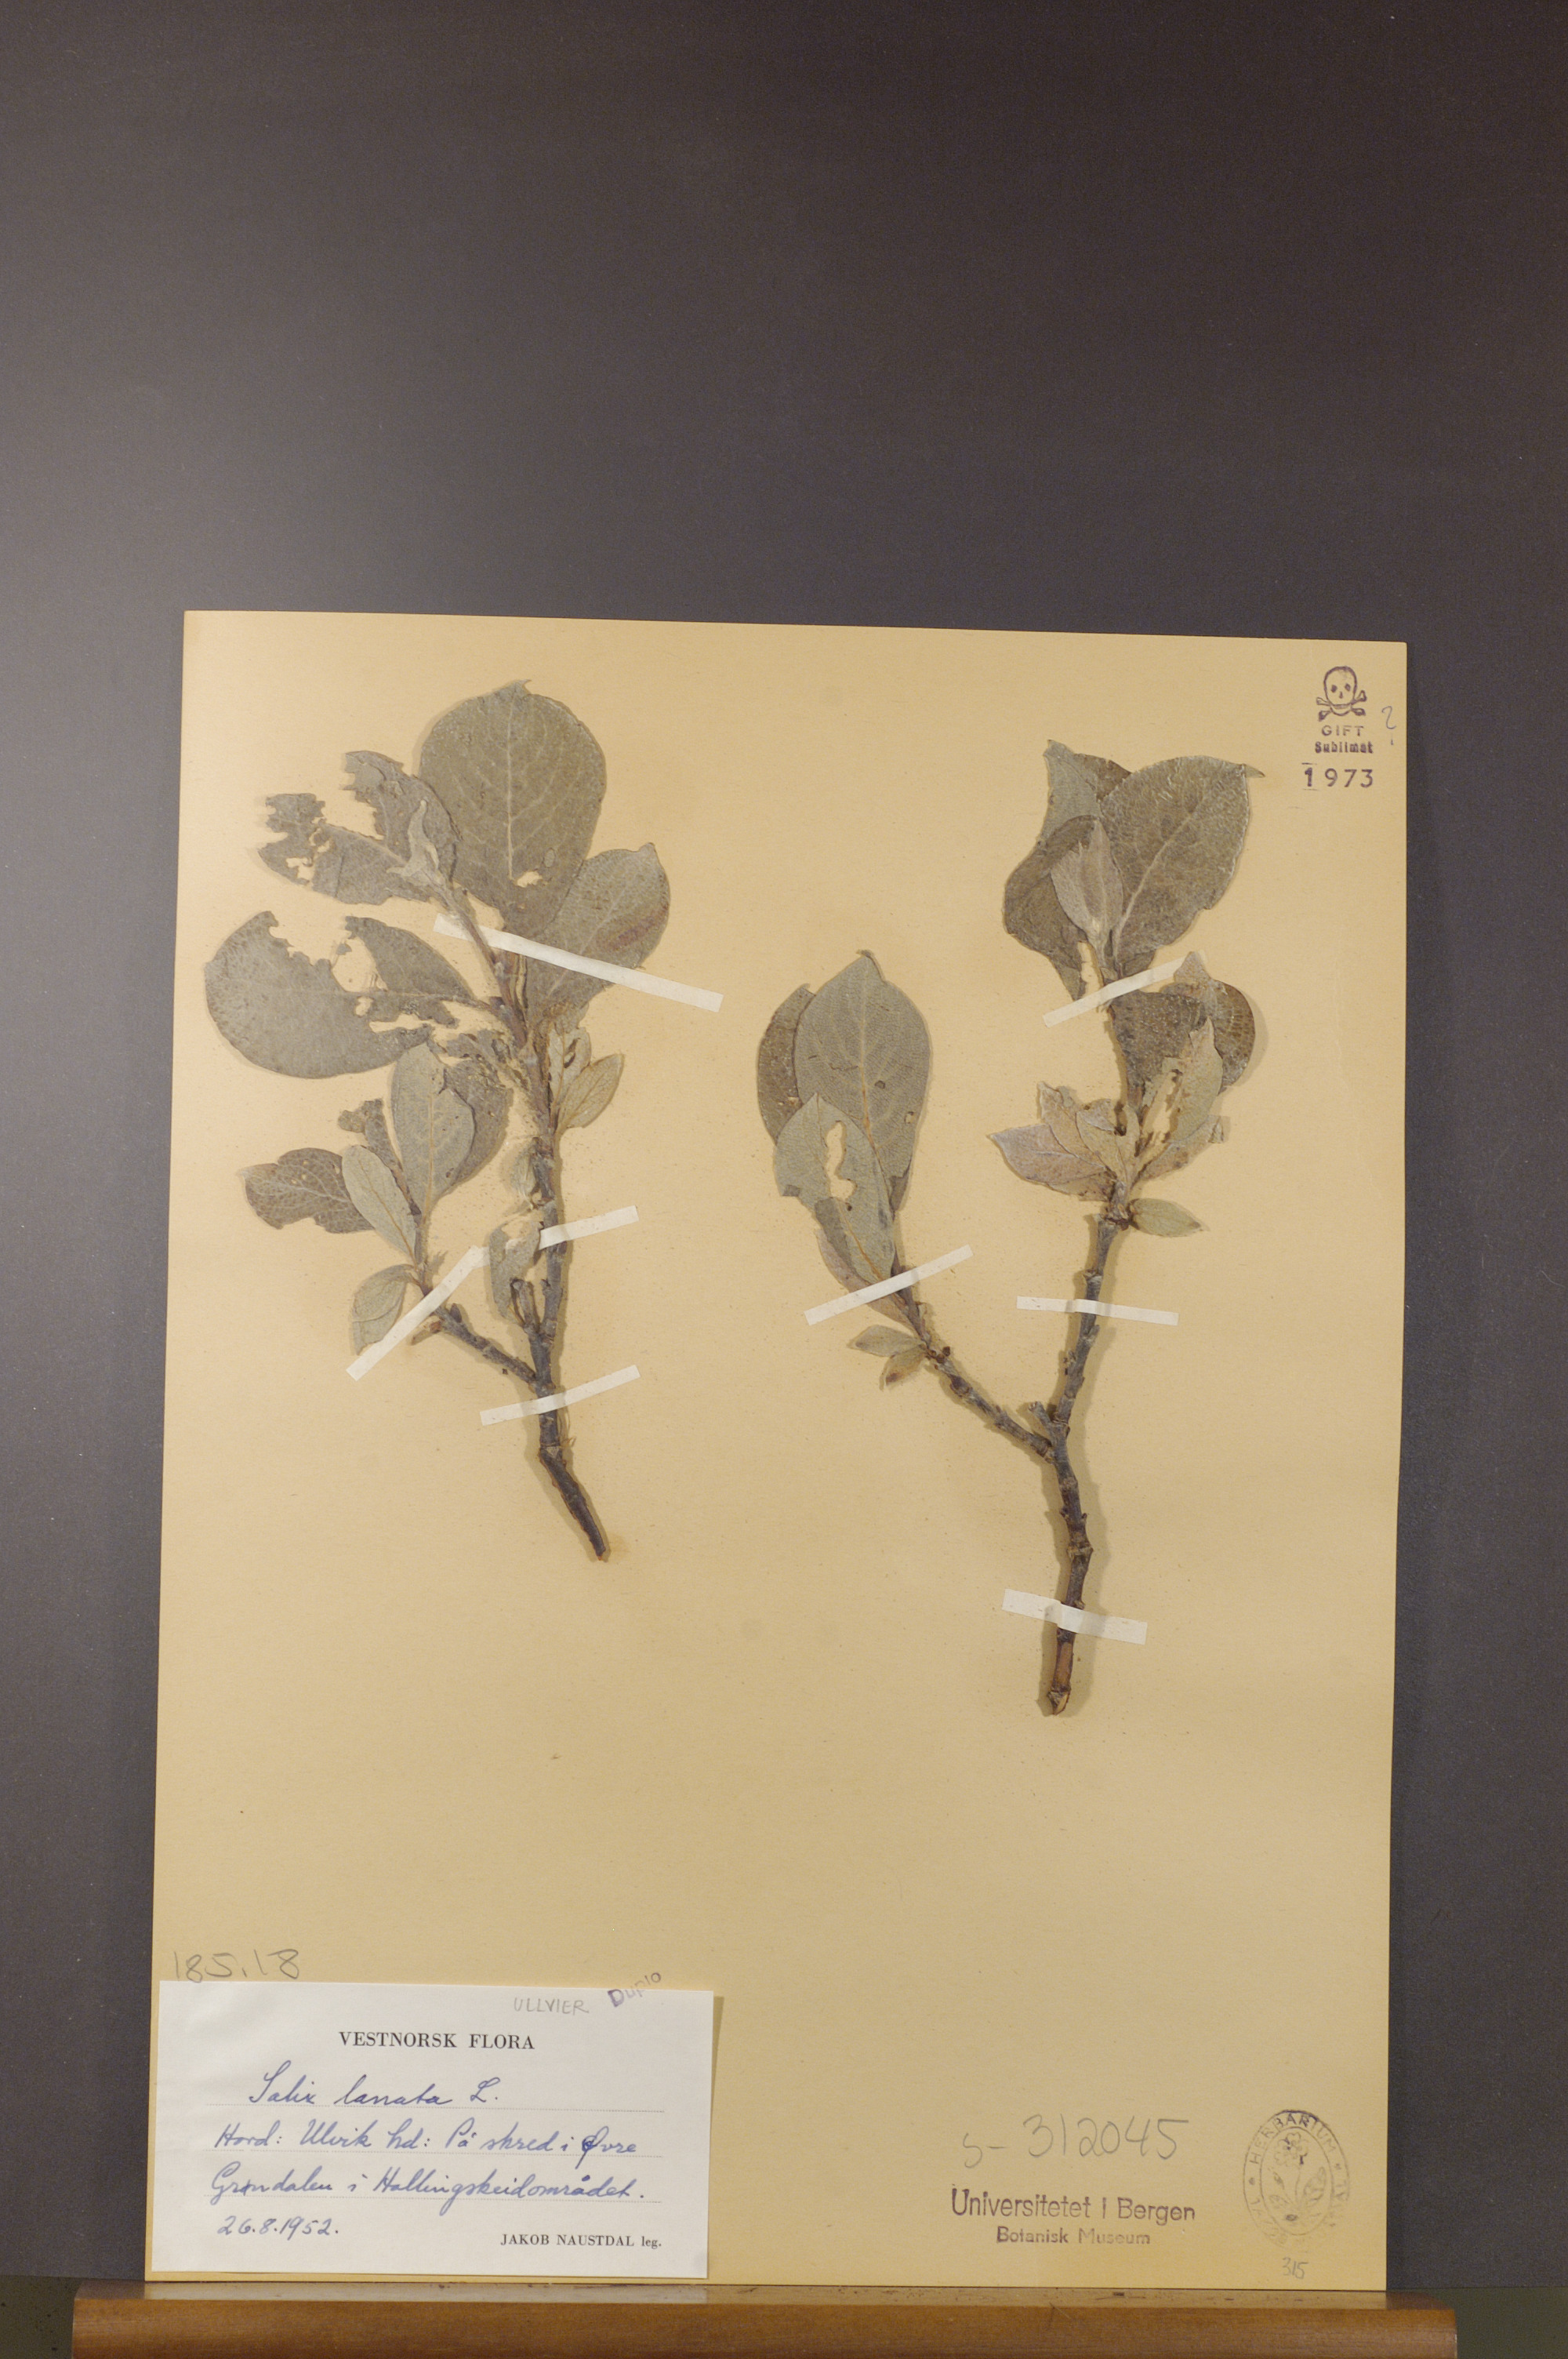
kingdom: Plantae
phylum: Tracheophyta
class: Magnoliopsida
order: Malpighiales
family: Salicaceae
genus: Salix
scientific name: Salix lanata
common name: Woolly willow
